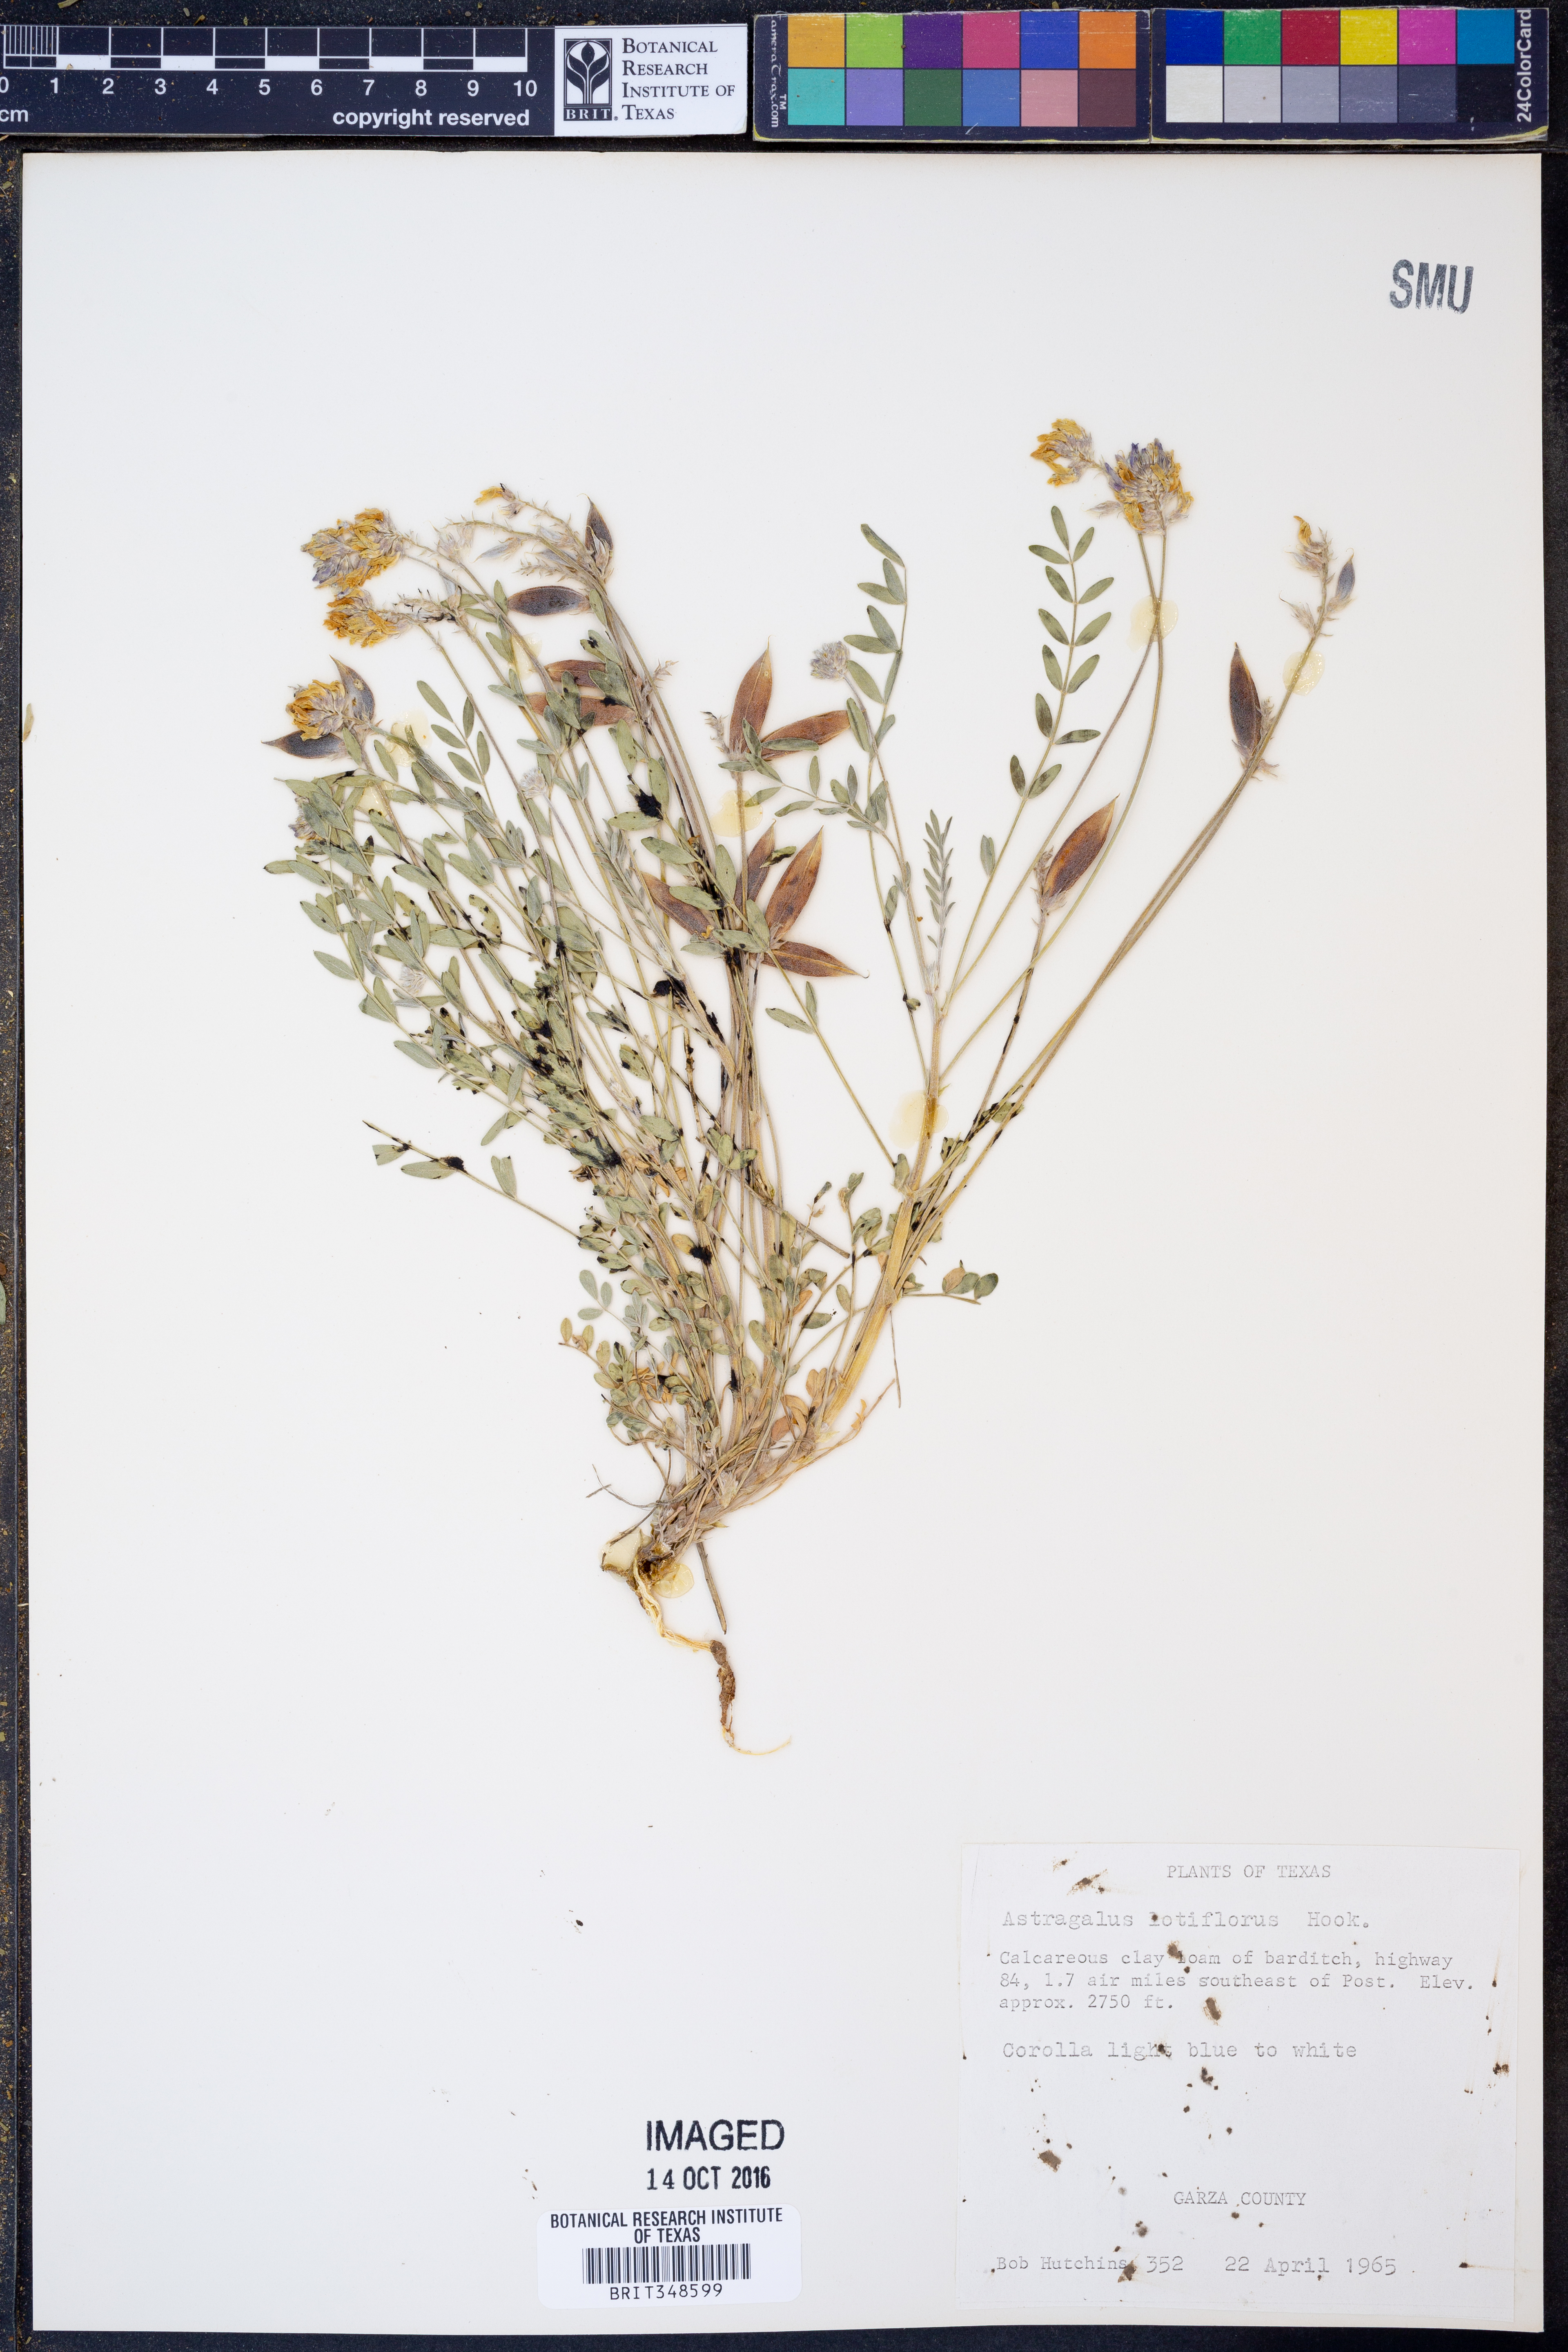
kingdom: Plantae
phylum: Tracheophyta
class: Magnoliopsida
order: Fabales
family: Fabaceae
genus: Astragalus
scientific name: Astragalus lotiflorus
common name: Lotus milk-vetch
